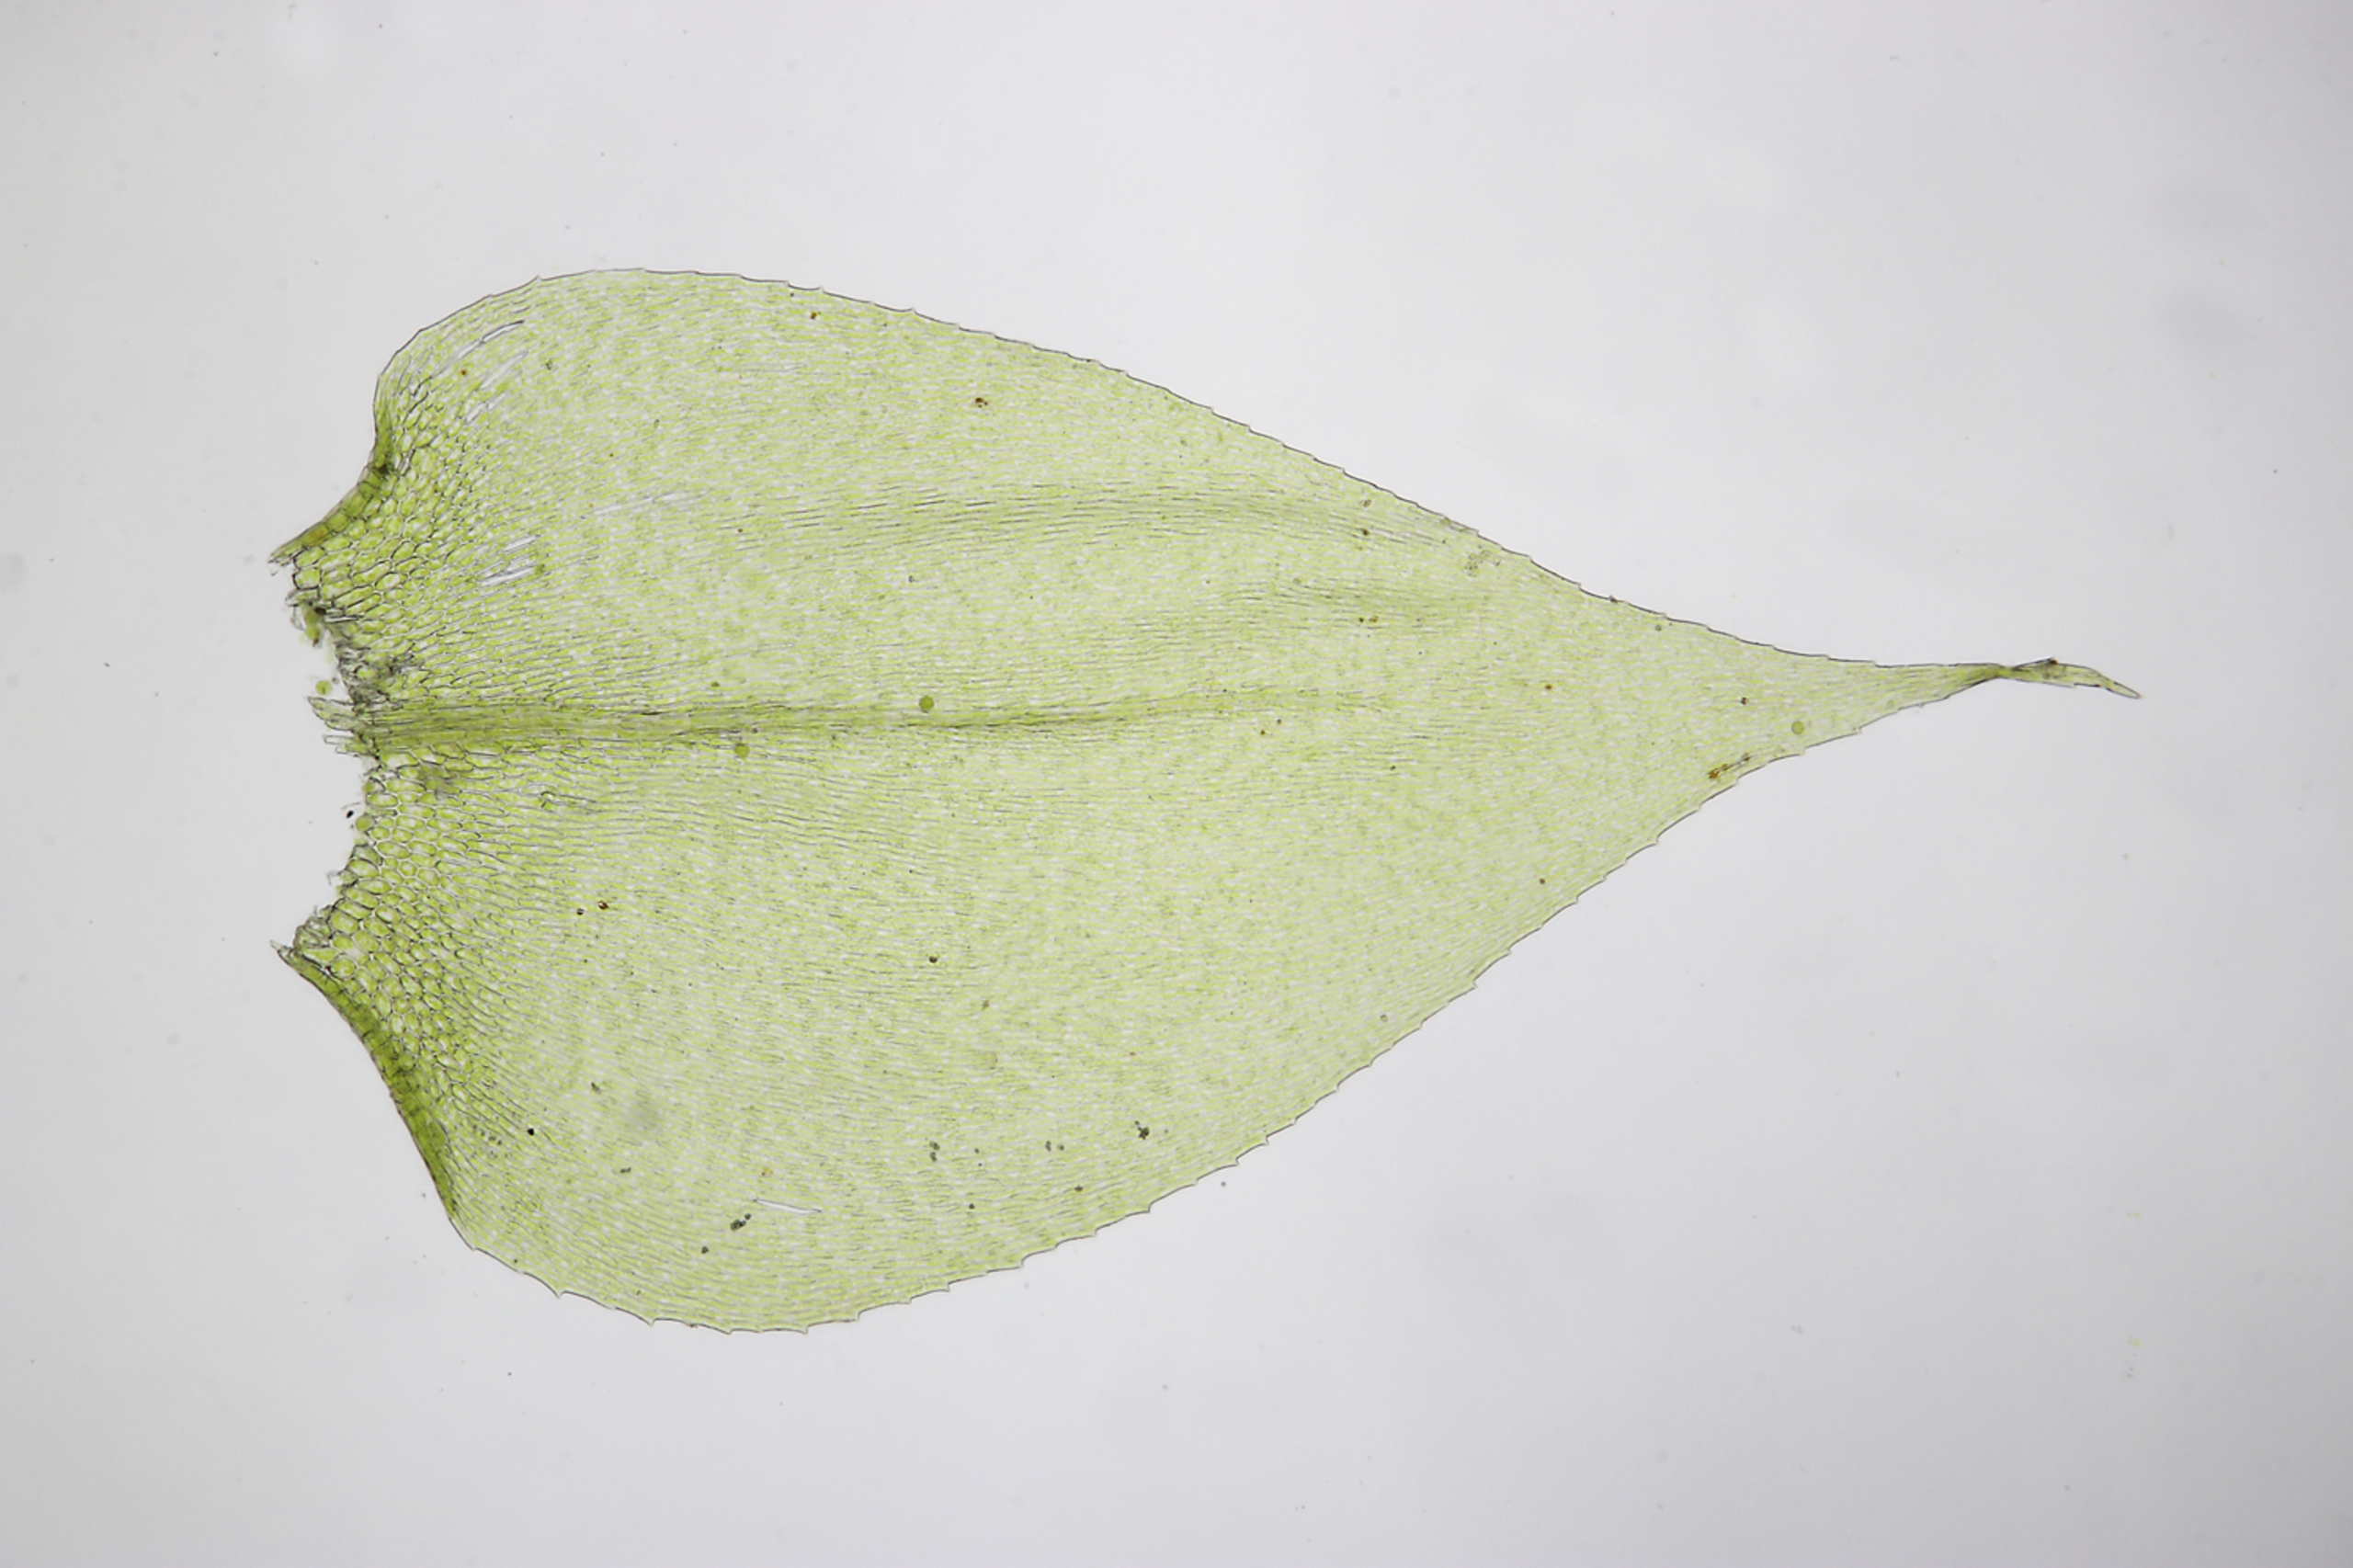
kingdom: Plantae
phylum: Bryophyta
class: Bryopsida
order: Hypnales
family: Brachytheciaceae
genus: Rhynchostegium
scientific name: Rhynchostegium megapolitanum
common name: Bredbladet langnæb
